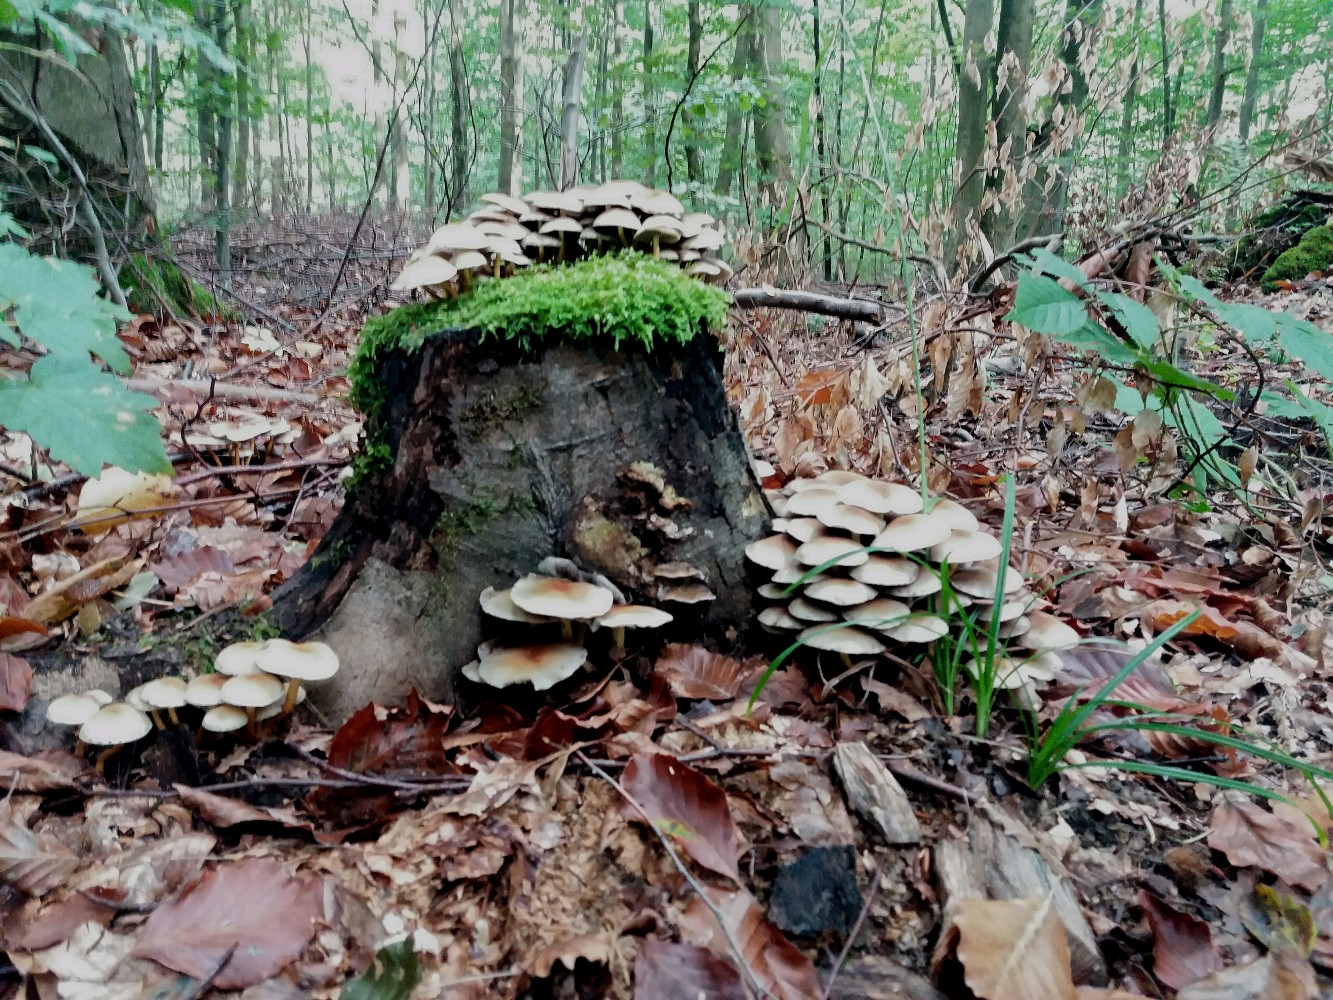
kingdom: Fungi
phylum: Basidiomycota
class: Agaricomycetes
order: Agaricales
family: Strophariaceae
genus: Hypholoma
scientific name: Hypholoma fasciculare
